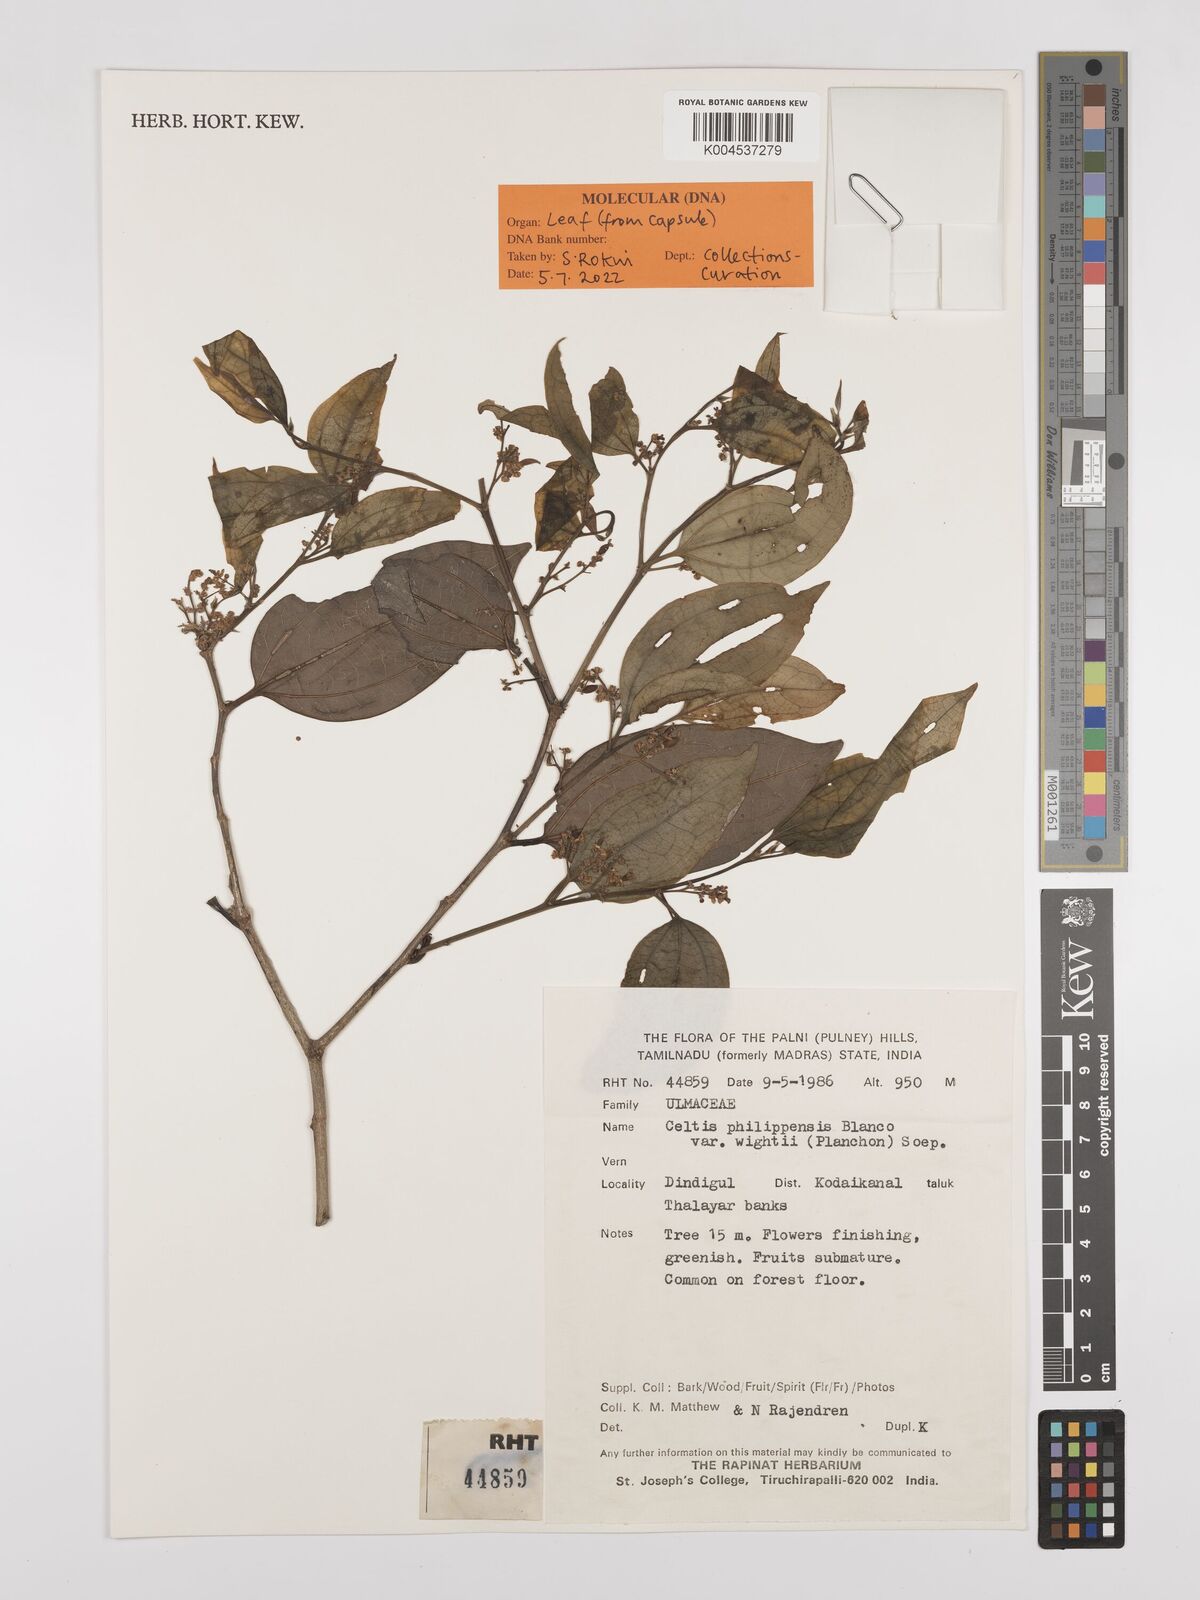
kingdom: Plantae
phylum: Tracheophyta
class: Magnoliopsida
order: Rosales
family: Cannabaceae
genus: Celtis
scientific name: Celtis philippensis
